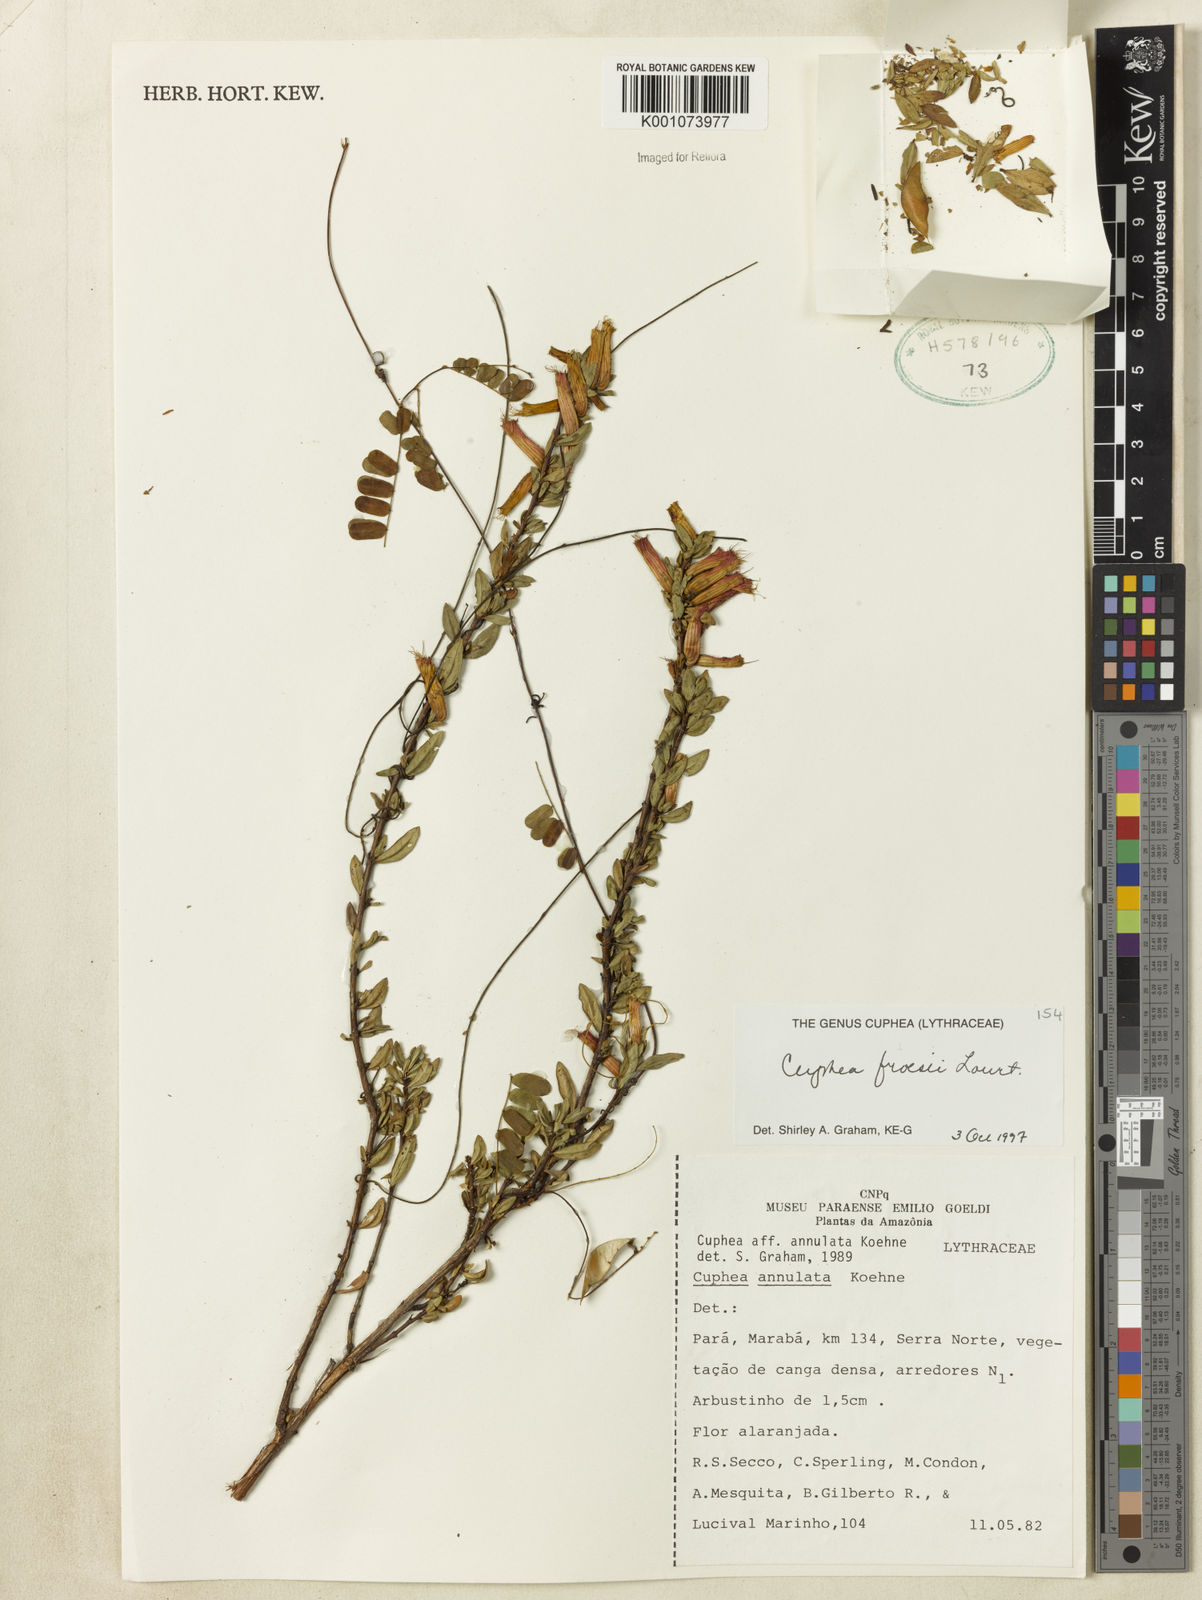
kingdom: Plantae
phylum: Tracheophyta
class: Magnoliopsida
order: Myrtales
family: Lythraceae
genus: Cuphea
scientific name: Cuphea froesii
